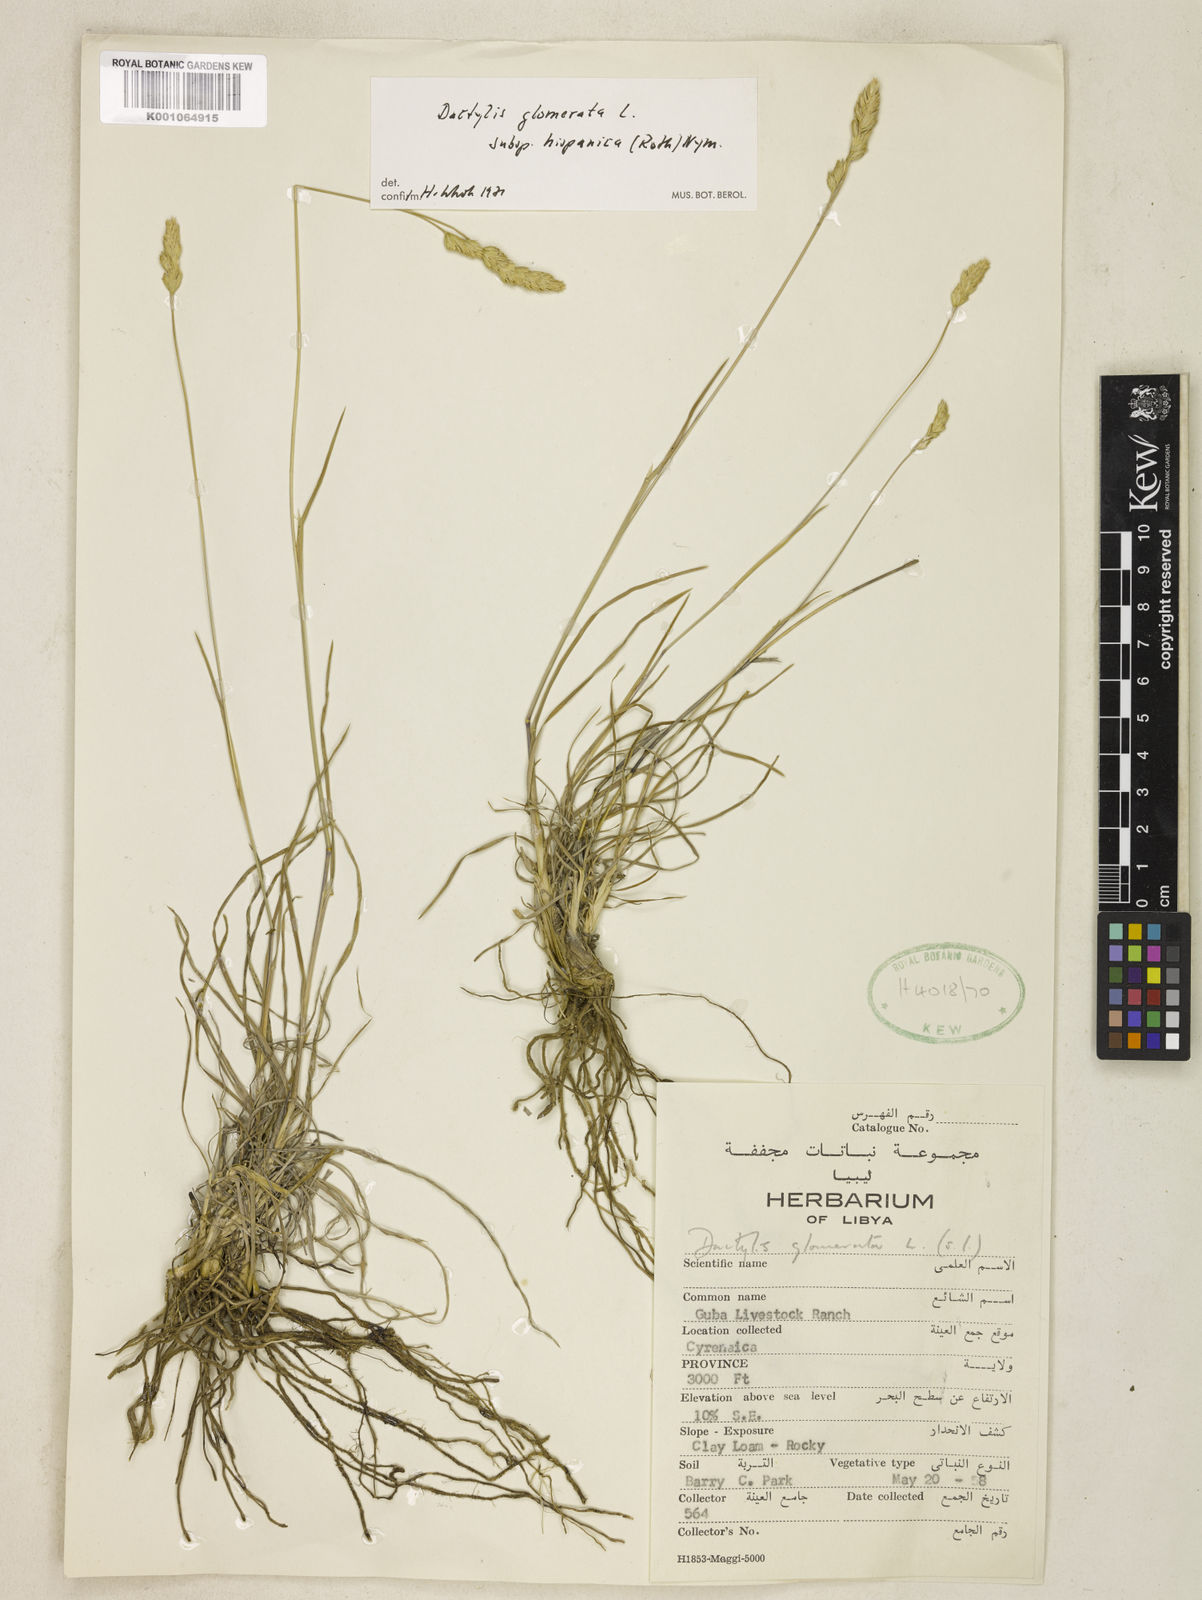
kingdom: Plantae
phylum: Tracheophyta
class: Liliopsida
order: Poales
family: Poaceae
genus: Dactylis
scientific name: Dactylis glomerata
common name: Orchardgrass
